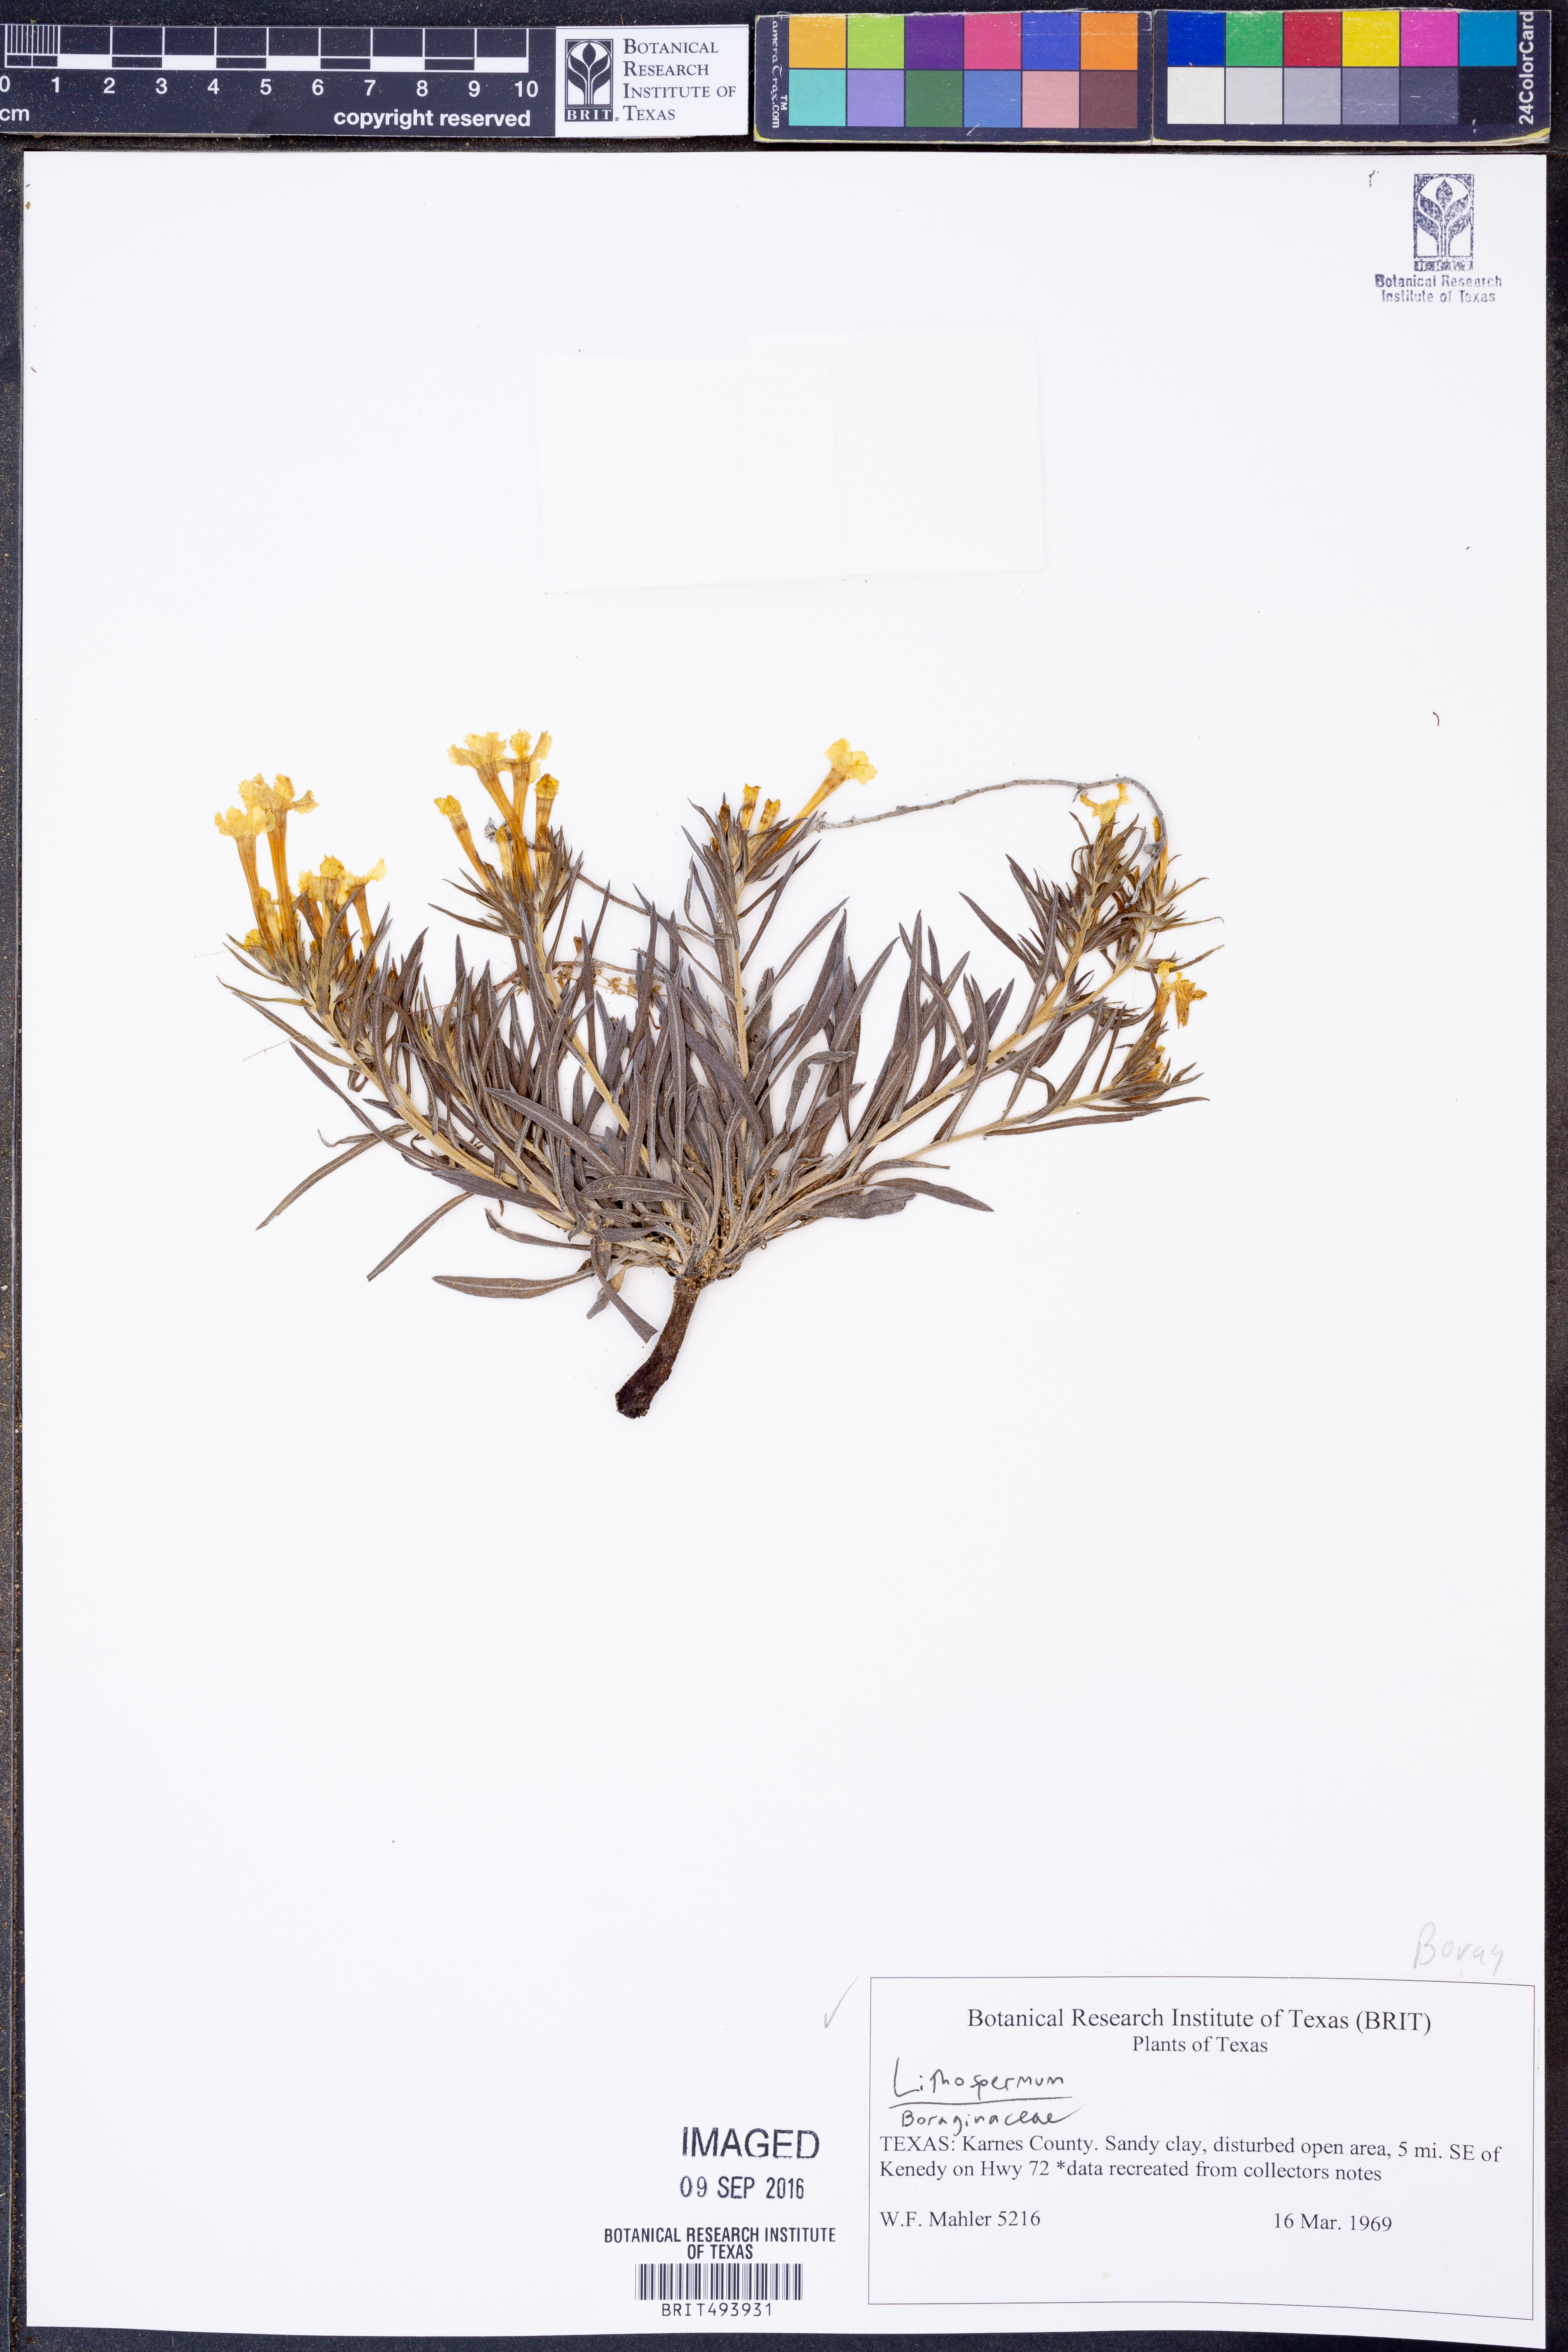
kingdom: Plantae
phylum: Tracheophyta
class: Magnoliopsida
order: Boraginales
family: Boraginaceae
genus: Lithospermum
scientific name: Lithospermum
